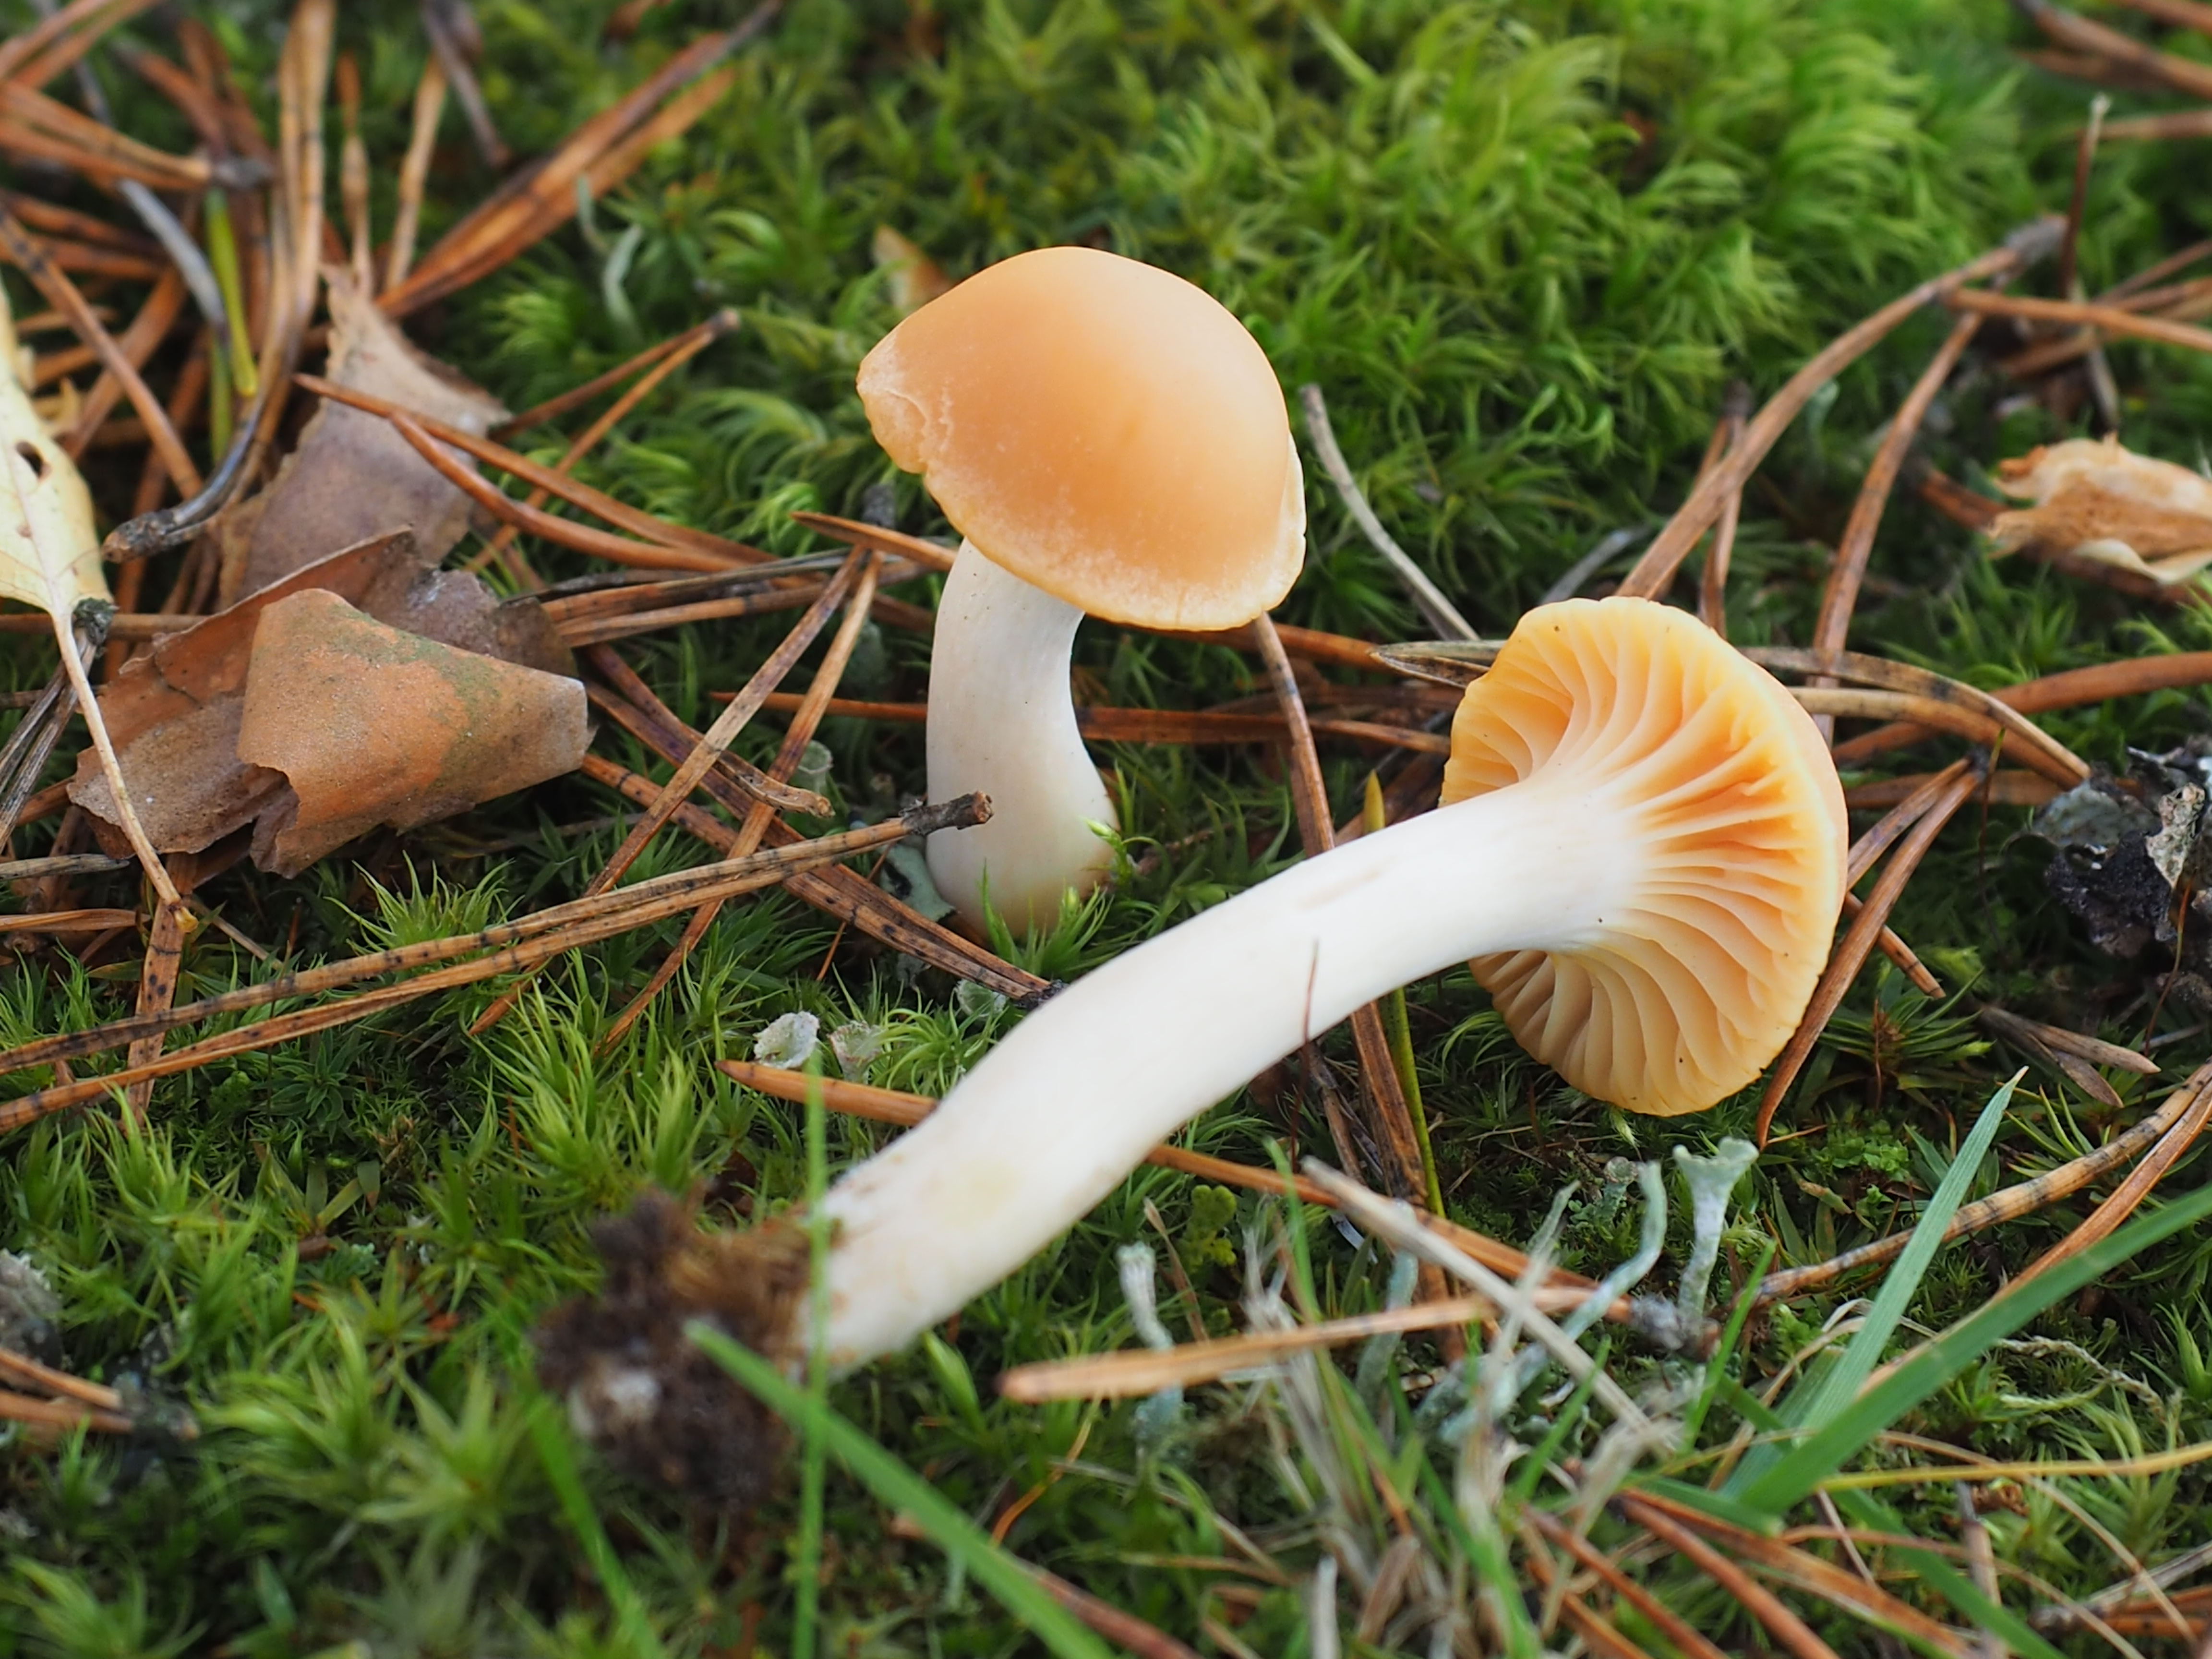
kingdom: Fungi
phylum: Basidiomycota
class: Agaricomycetes
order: Agaricales
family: Hygrophoraceae
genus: Cuphophyllus
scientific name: Cuphophyllus pratensis
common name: Meadow waxcap
